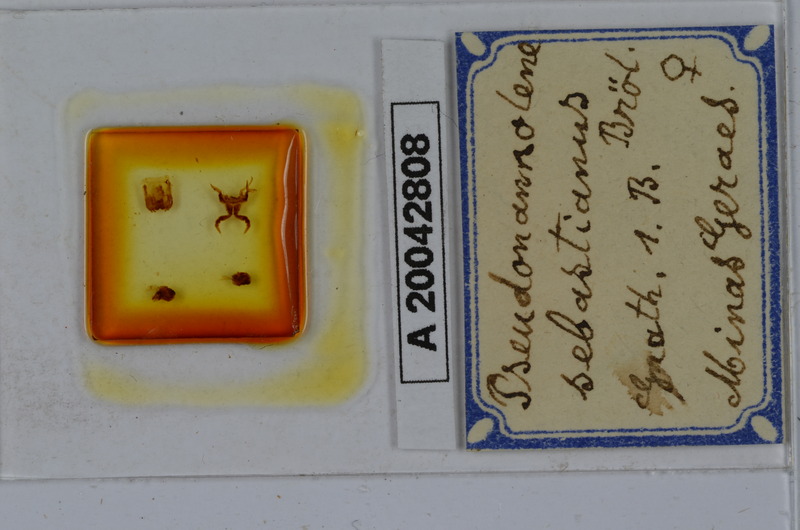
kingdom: Animalia
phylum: Arthropoda
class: Diplopoda
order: Spirostreptida
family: Pseudonannolenidae
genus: Pseudonannolene
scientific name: Pseudonannolene sebastianus
